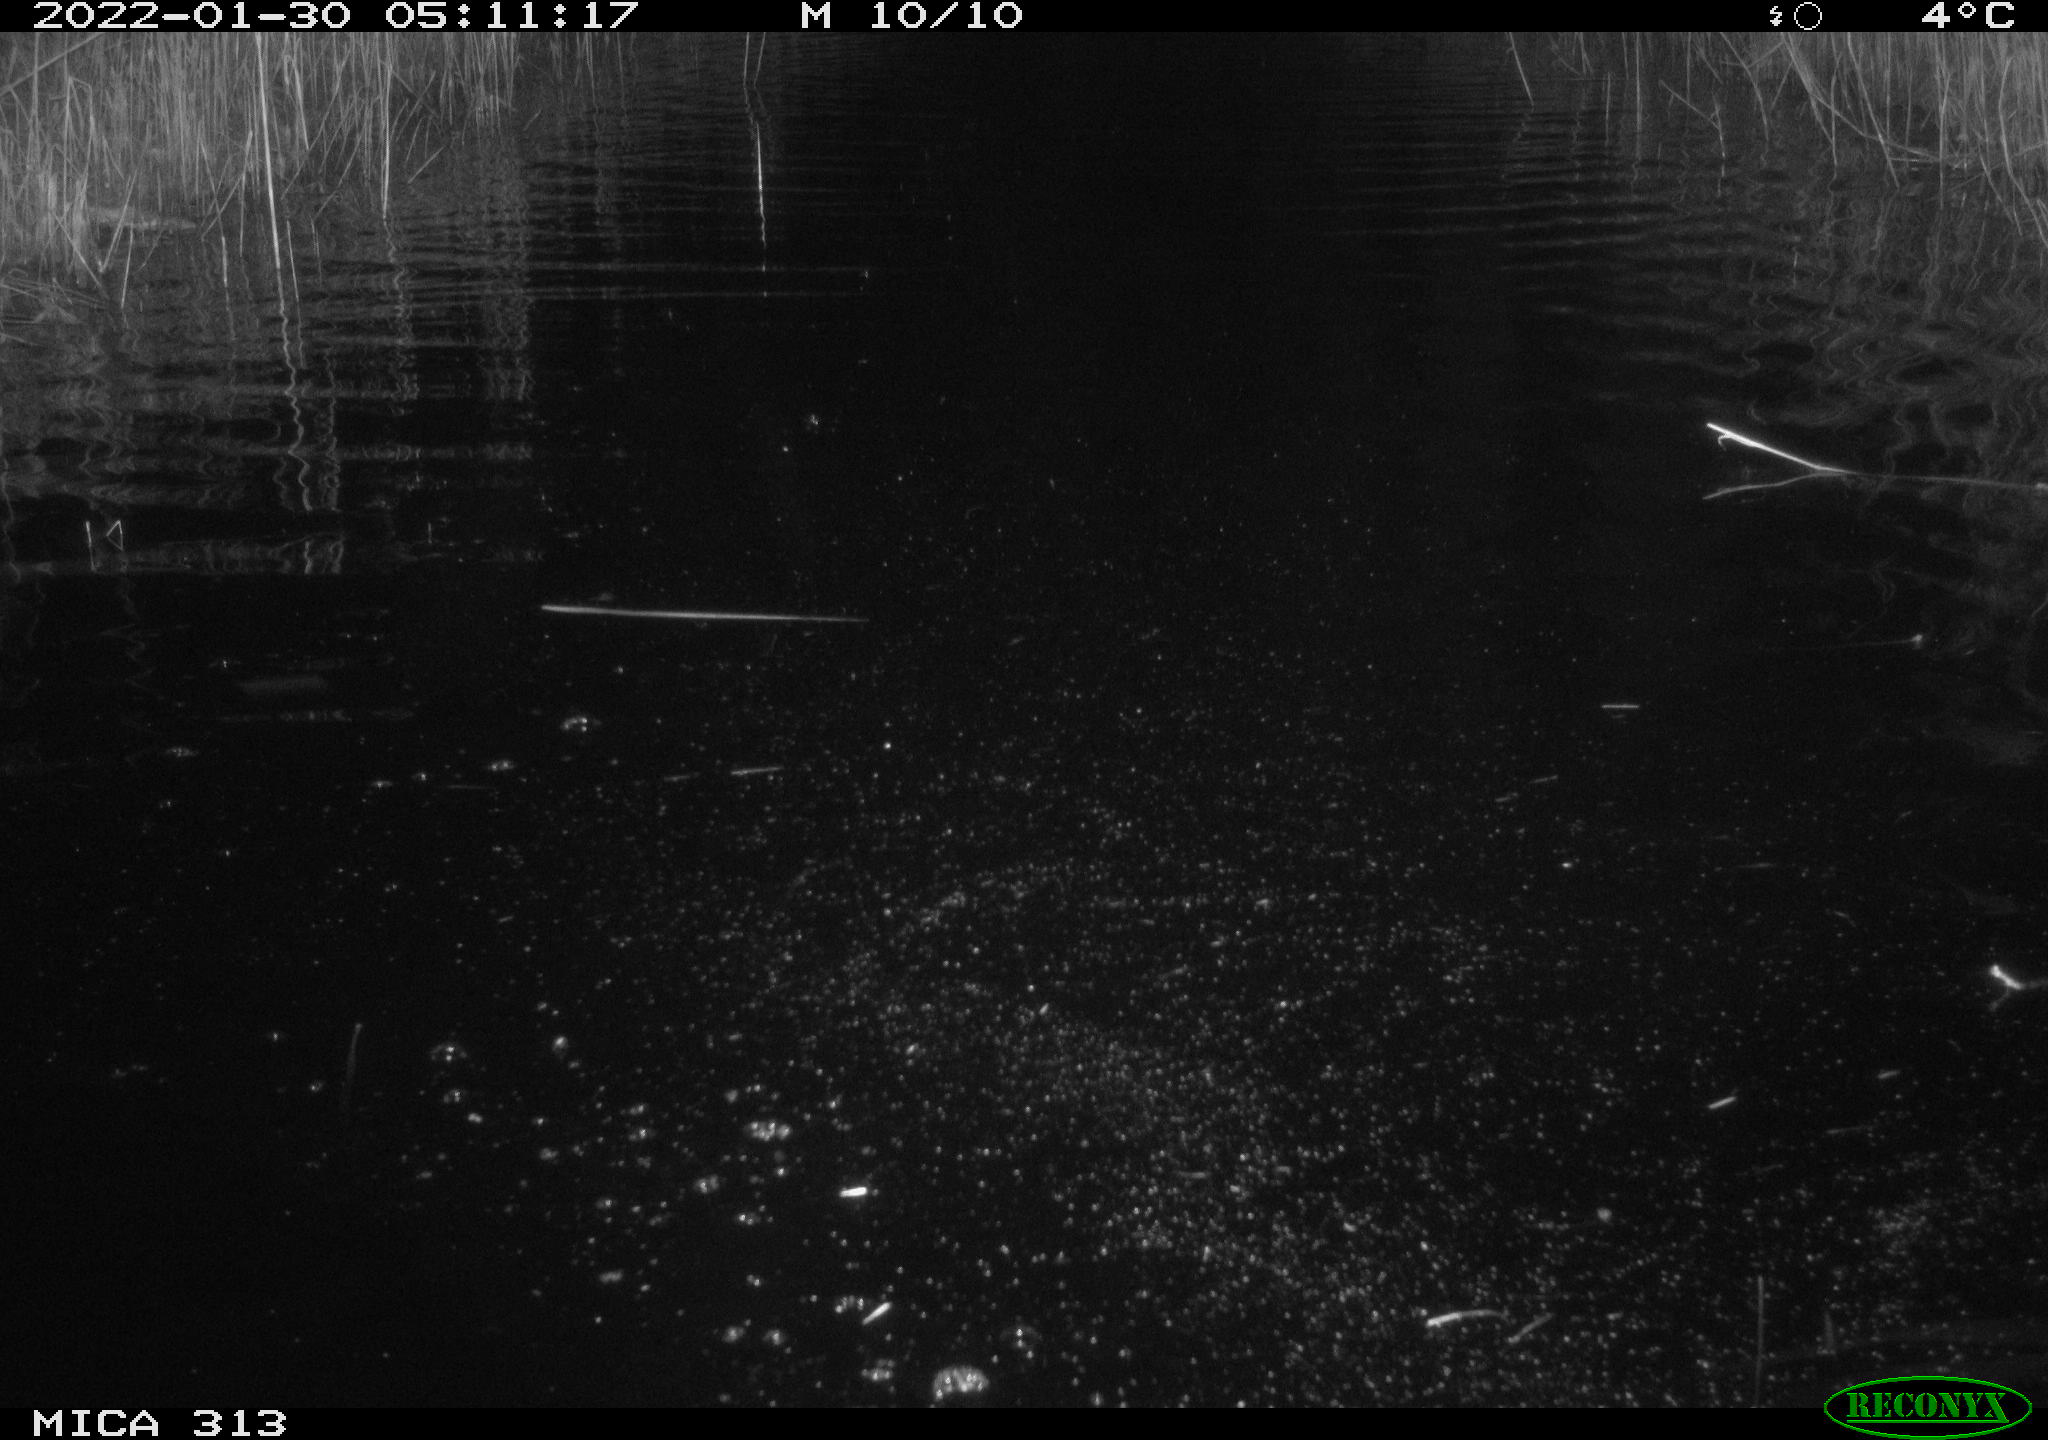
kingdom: Animalia
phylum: Chordata
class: Aves
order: Gruiformes
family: Rallidae
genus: Gallinula
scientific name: Gallinula chloropus
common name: Common moorhen
